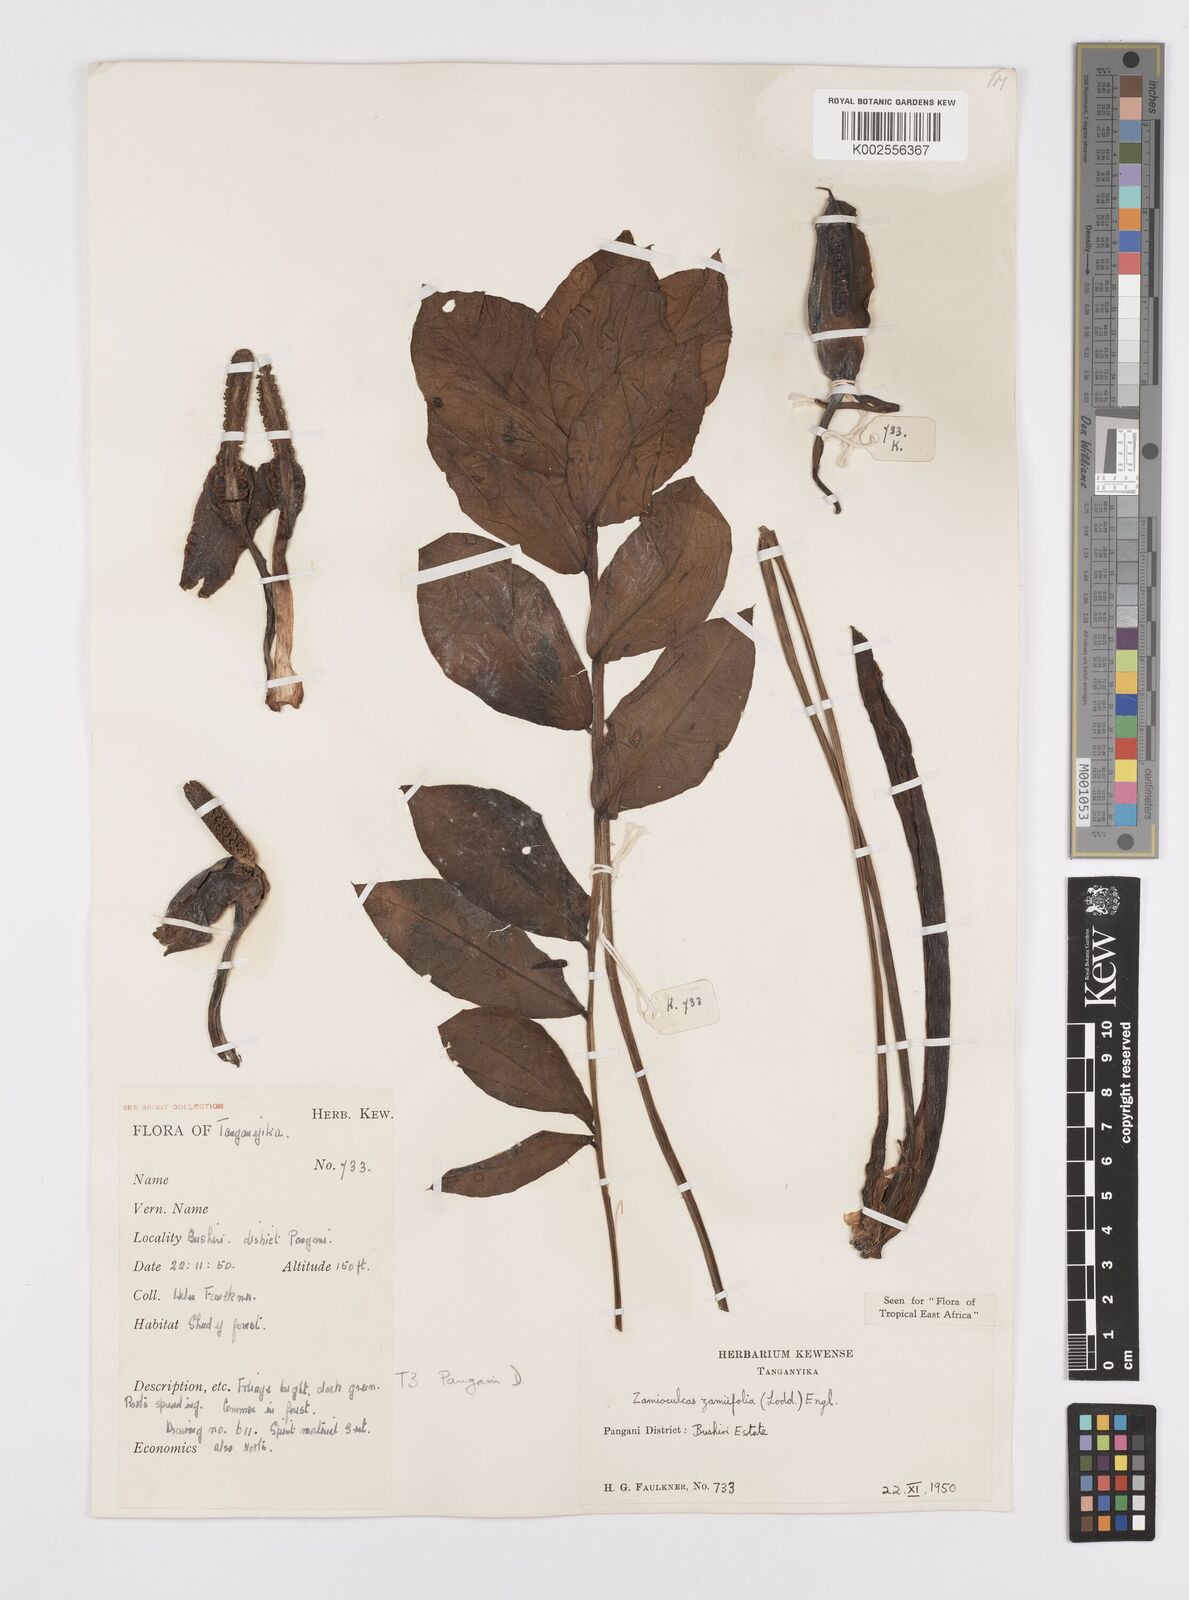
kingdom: Plantae
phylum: Tracheophyta
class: Liliopsida
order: Alismatales
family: Araceae
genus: Zamioculcas
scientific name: Zamioculcas zamiifolia
